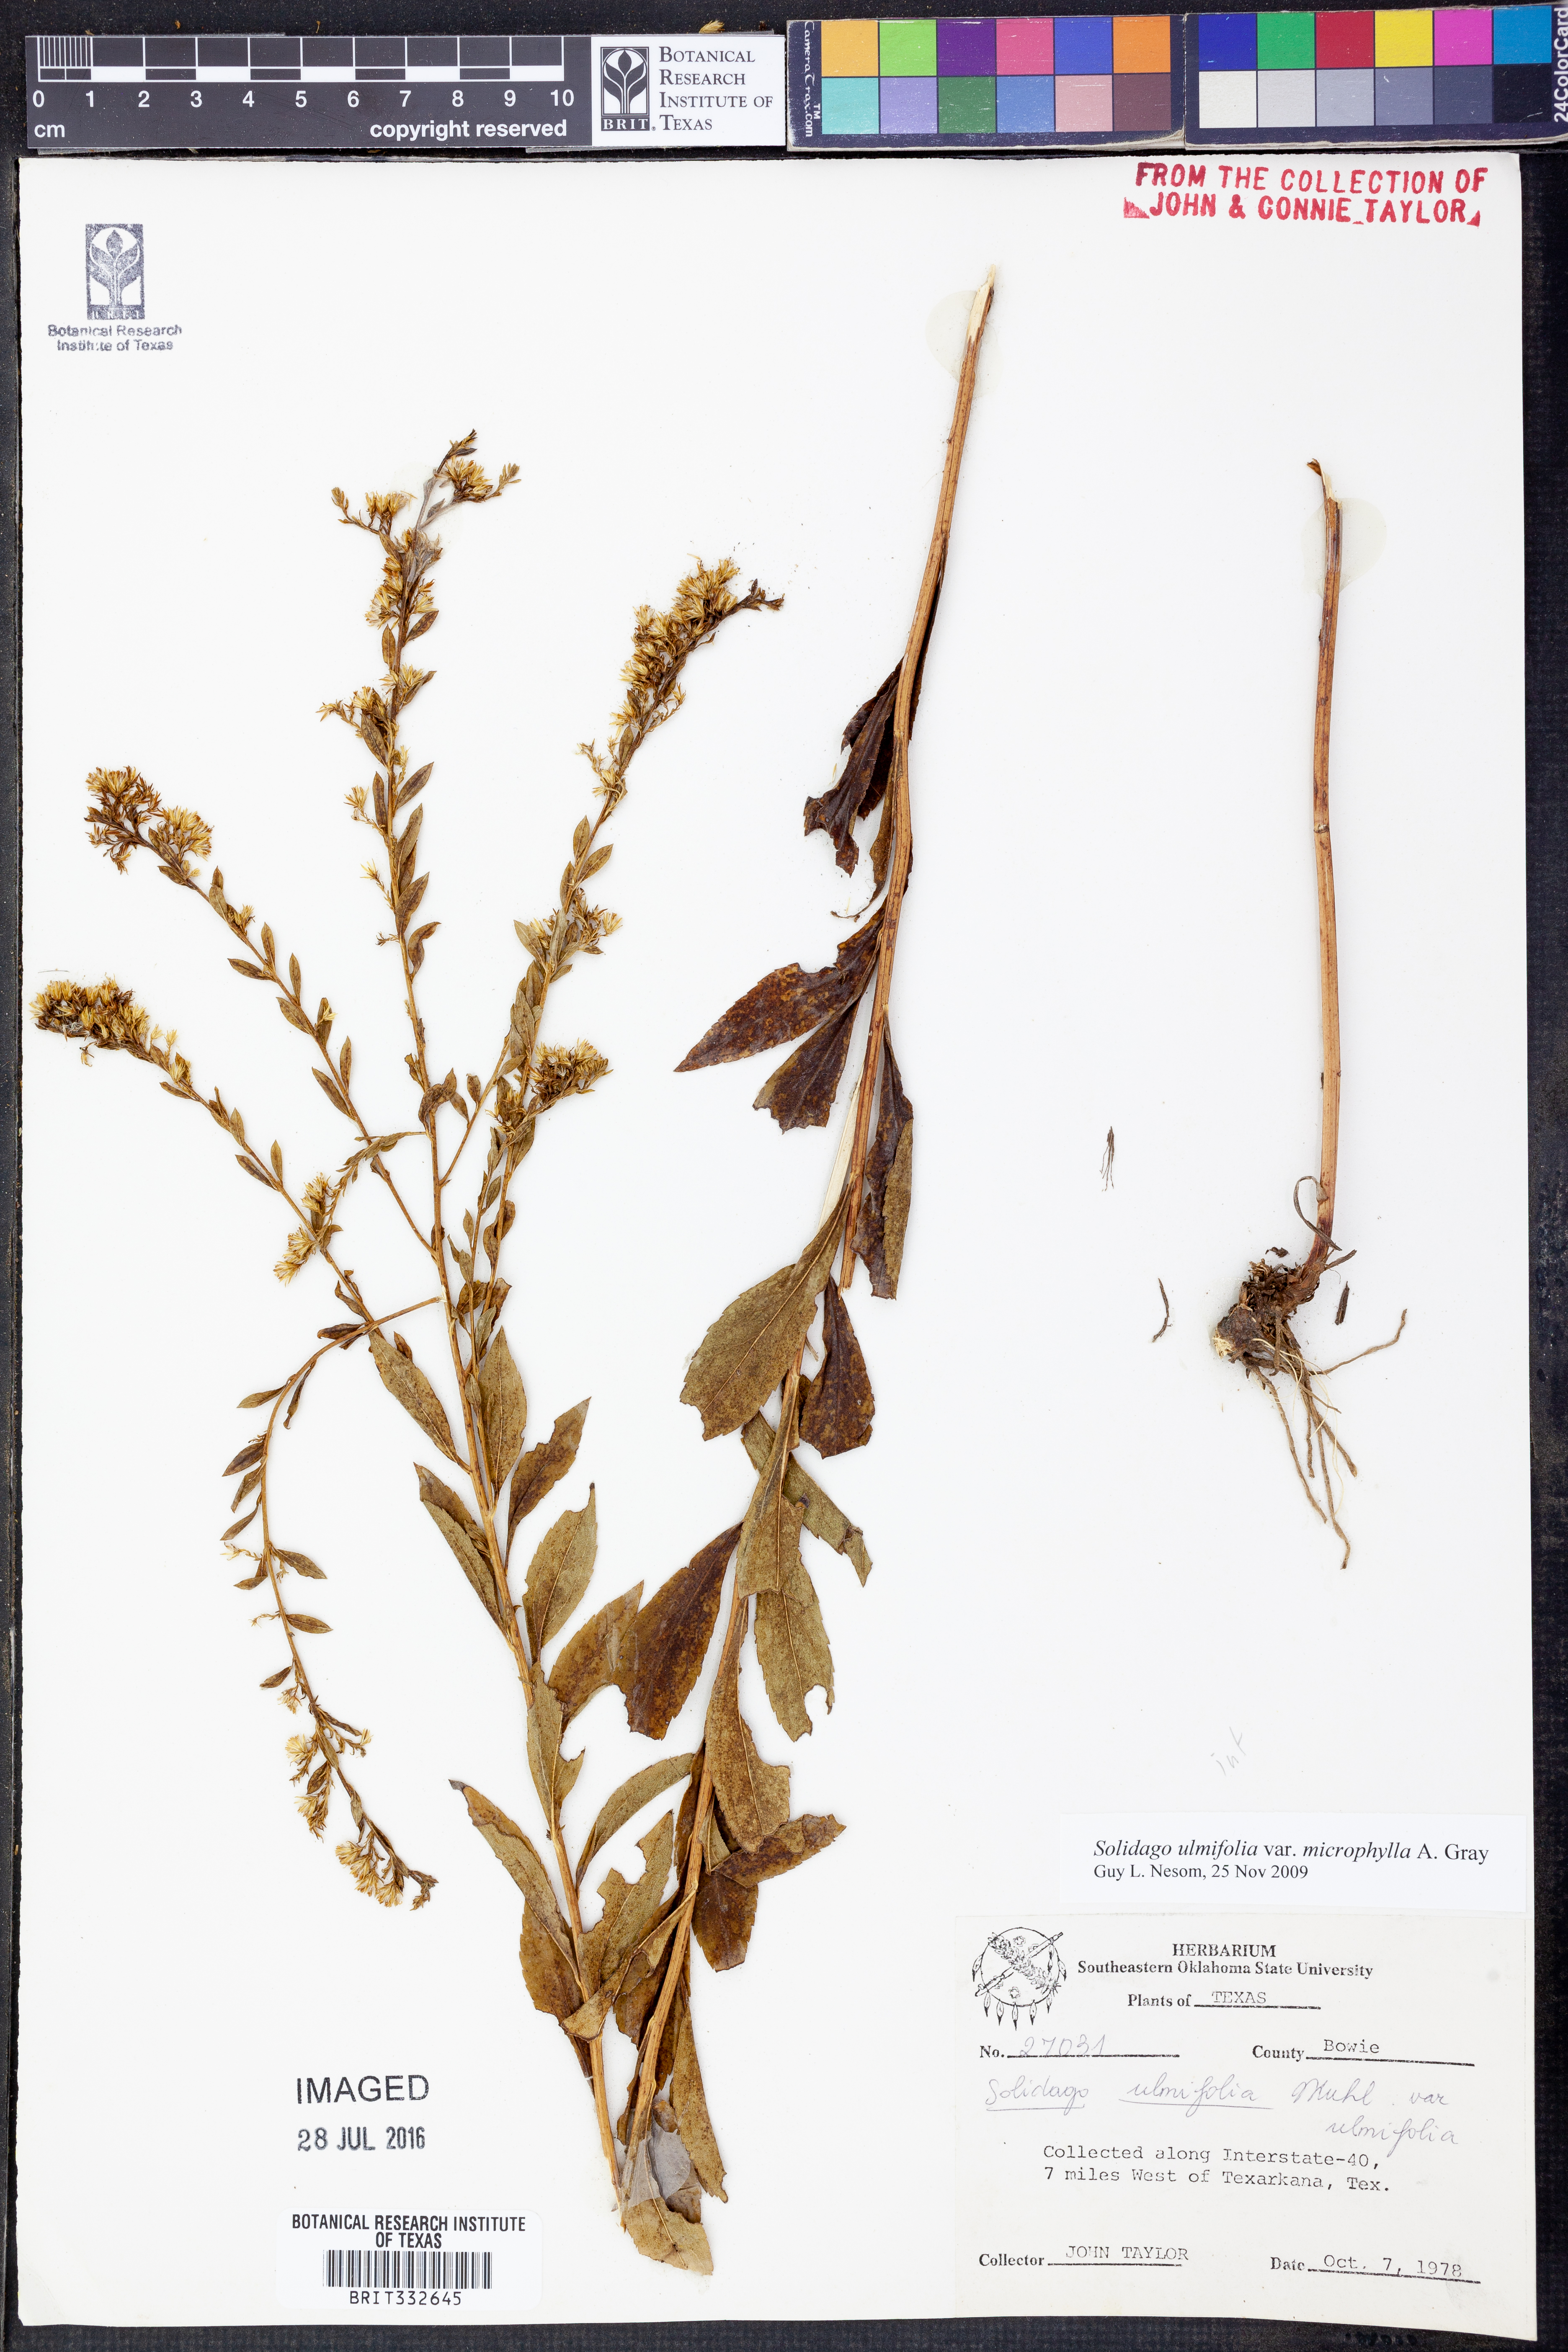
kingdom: Plantae
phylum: Tracheophyta
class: Magnoliopsida
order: Asterales
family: Asteraceae
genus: Solidago
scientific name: Solidago delicatula
